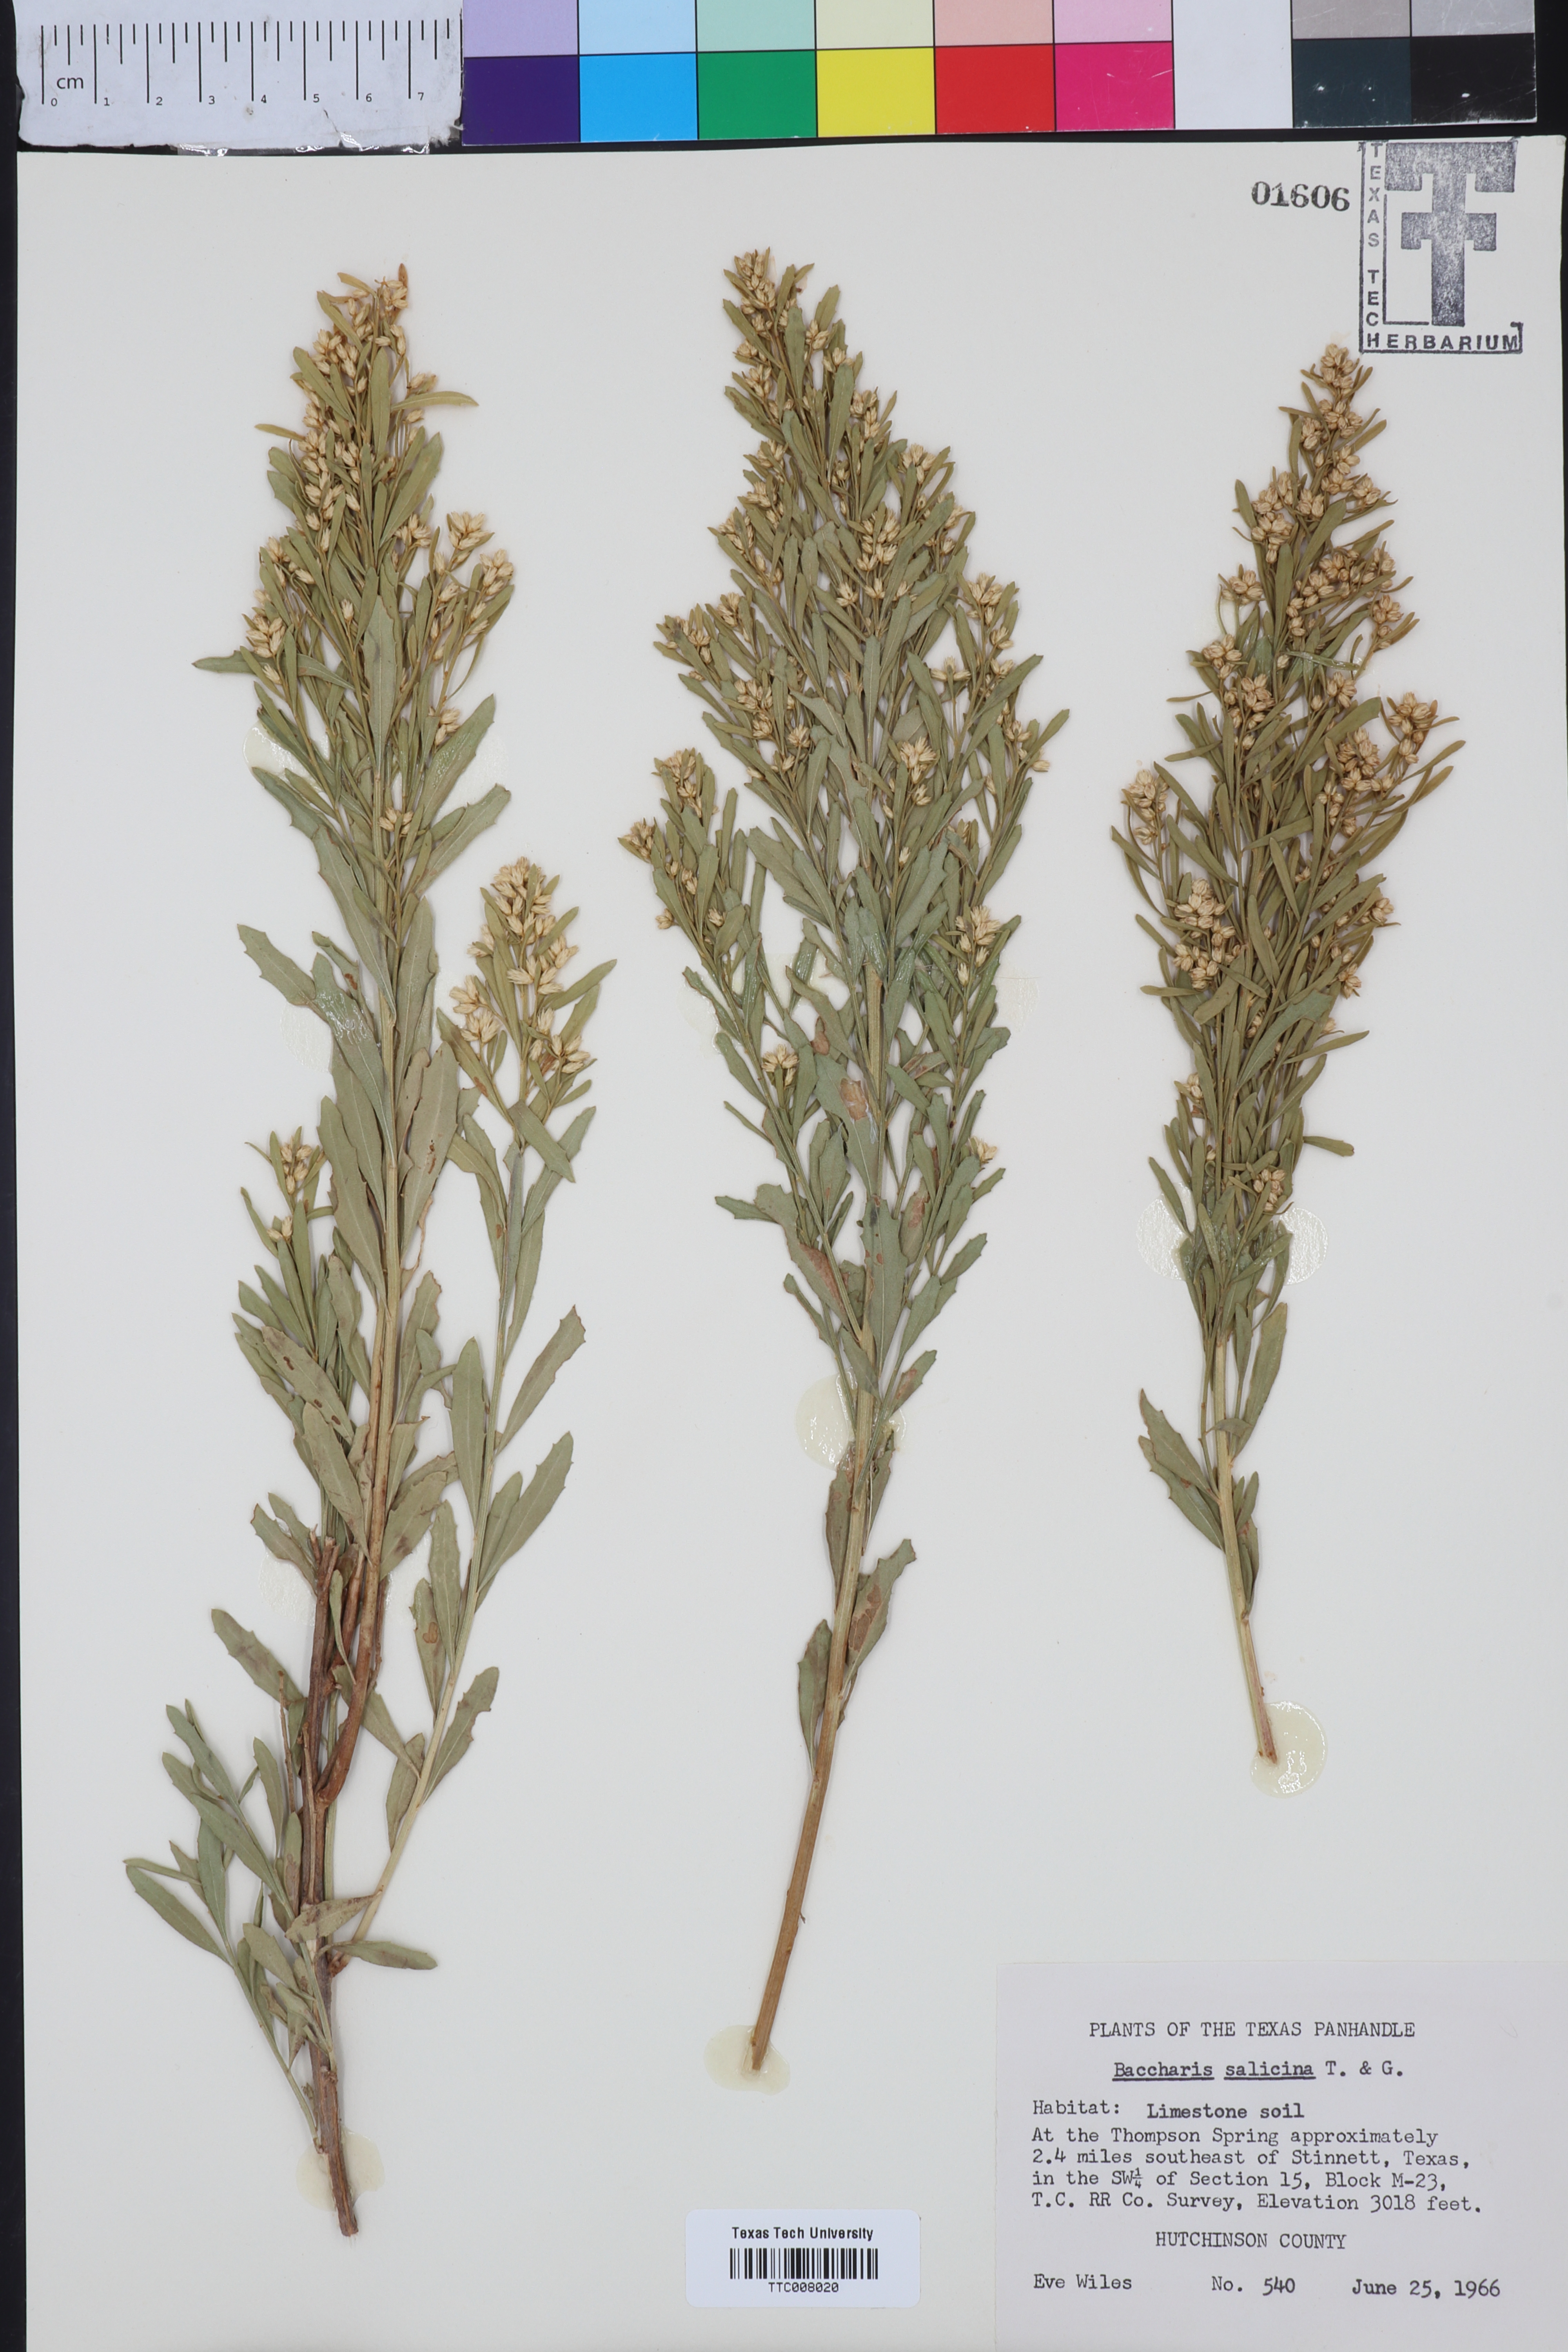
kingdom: Plantae
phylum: Tracheophyta
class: Magnoliopsida
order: Asterales
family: Asteraceae
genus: Baccharis
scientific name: Baccharis salicina
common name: Willow baccharis
